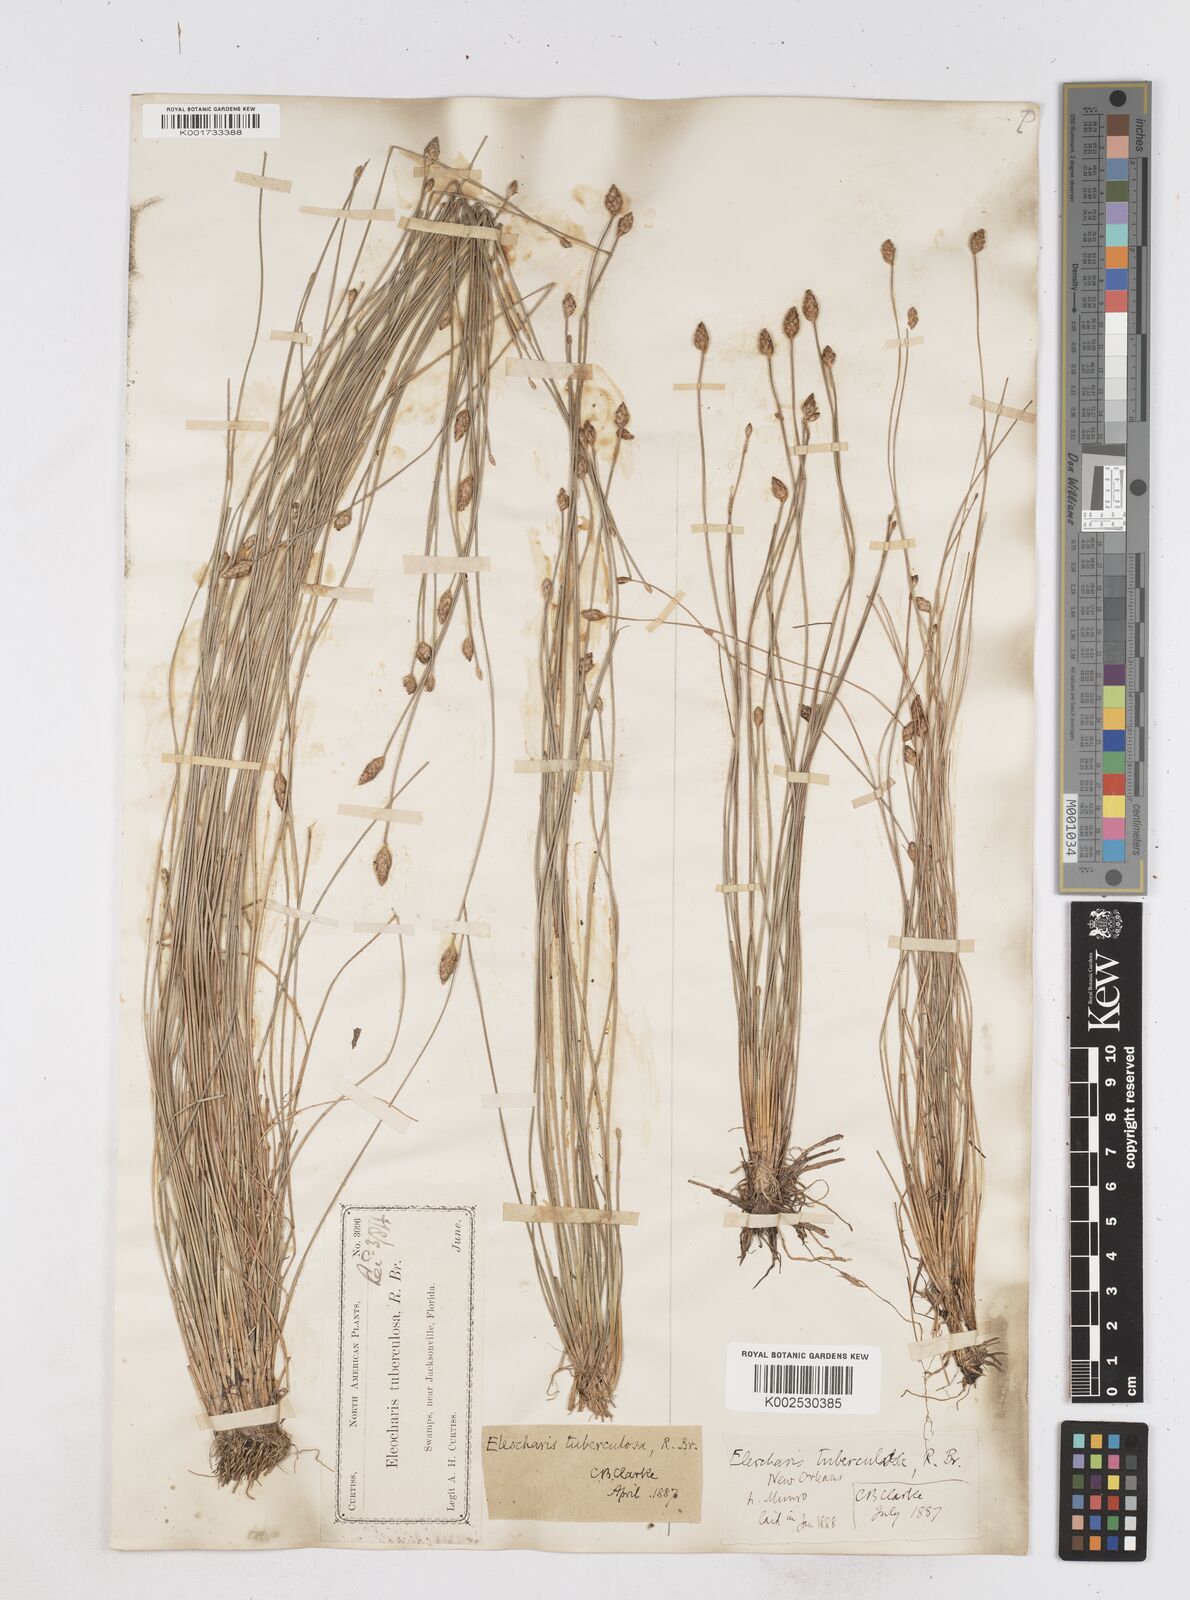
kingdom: Plantae
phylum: Tracheophyta
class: Liliopsida
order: Poales
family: Cyperaceae
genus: Eleocharis
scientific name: Eleocharis tuberculosa
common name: Cone-cup spikerush
